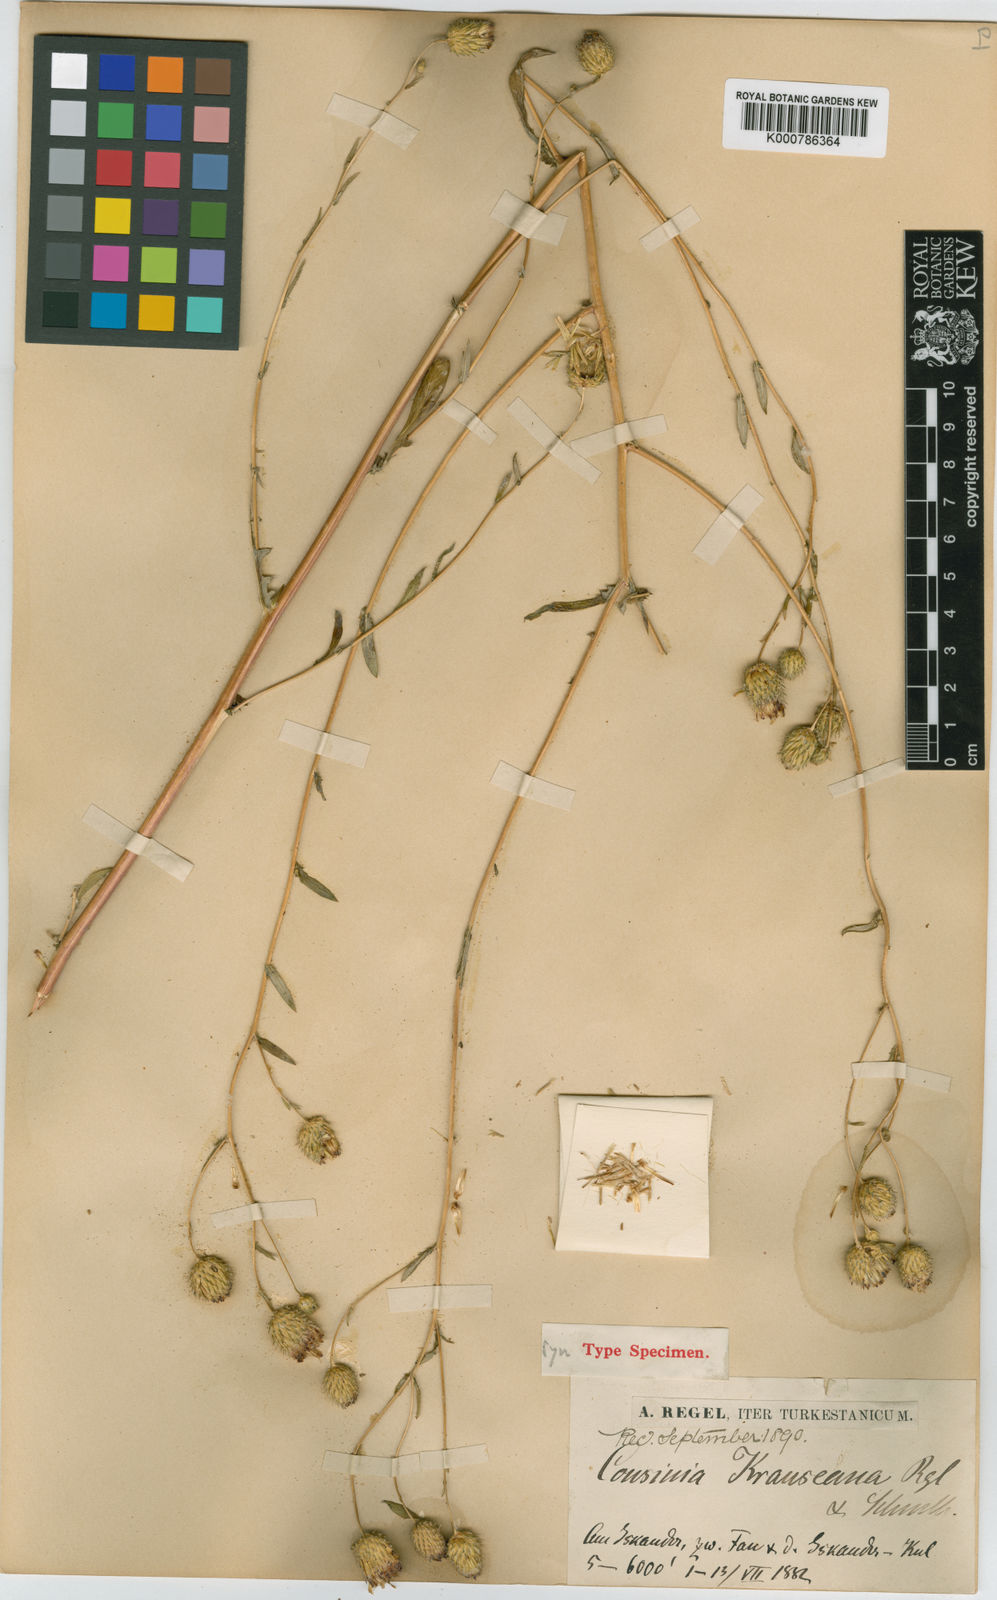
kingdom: Plantae
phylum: Tracheophyta
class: Magnoliopsida
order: Asterales
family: Asteraceae
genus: Cousinia
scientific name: Cousinia krauseana
